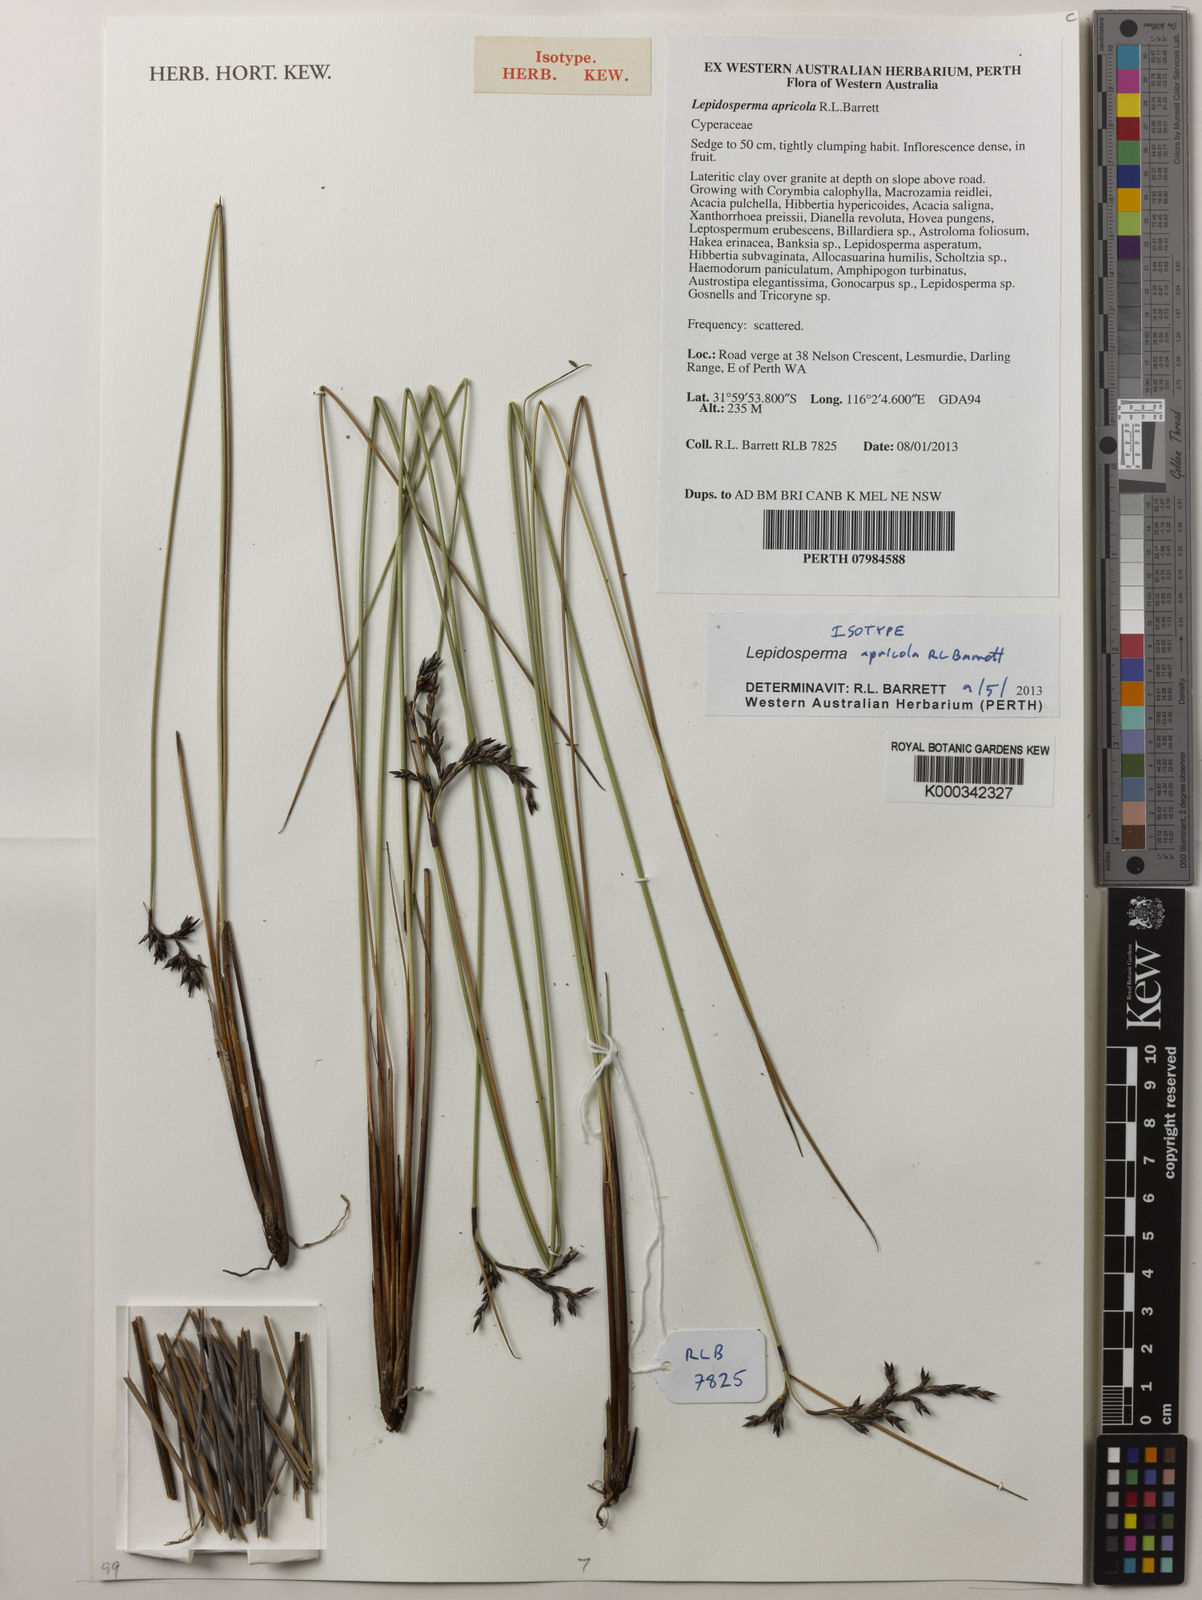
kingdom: Plantae
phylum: Tracheophyta
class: Liliopsida
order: Poales
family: Cyperaceae
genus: Lepidosperma
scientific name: Lepidosperma apricola
